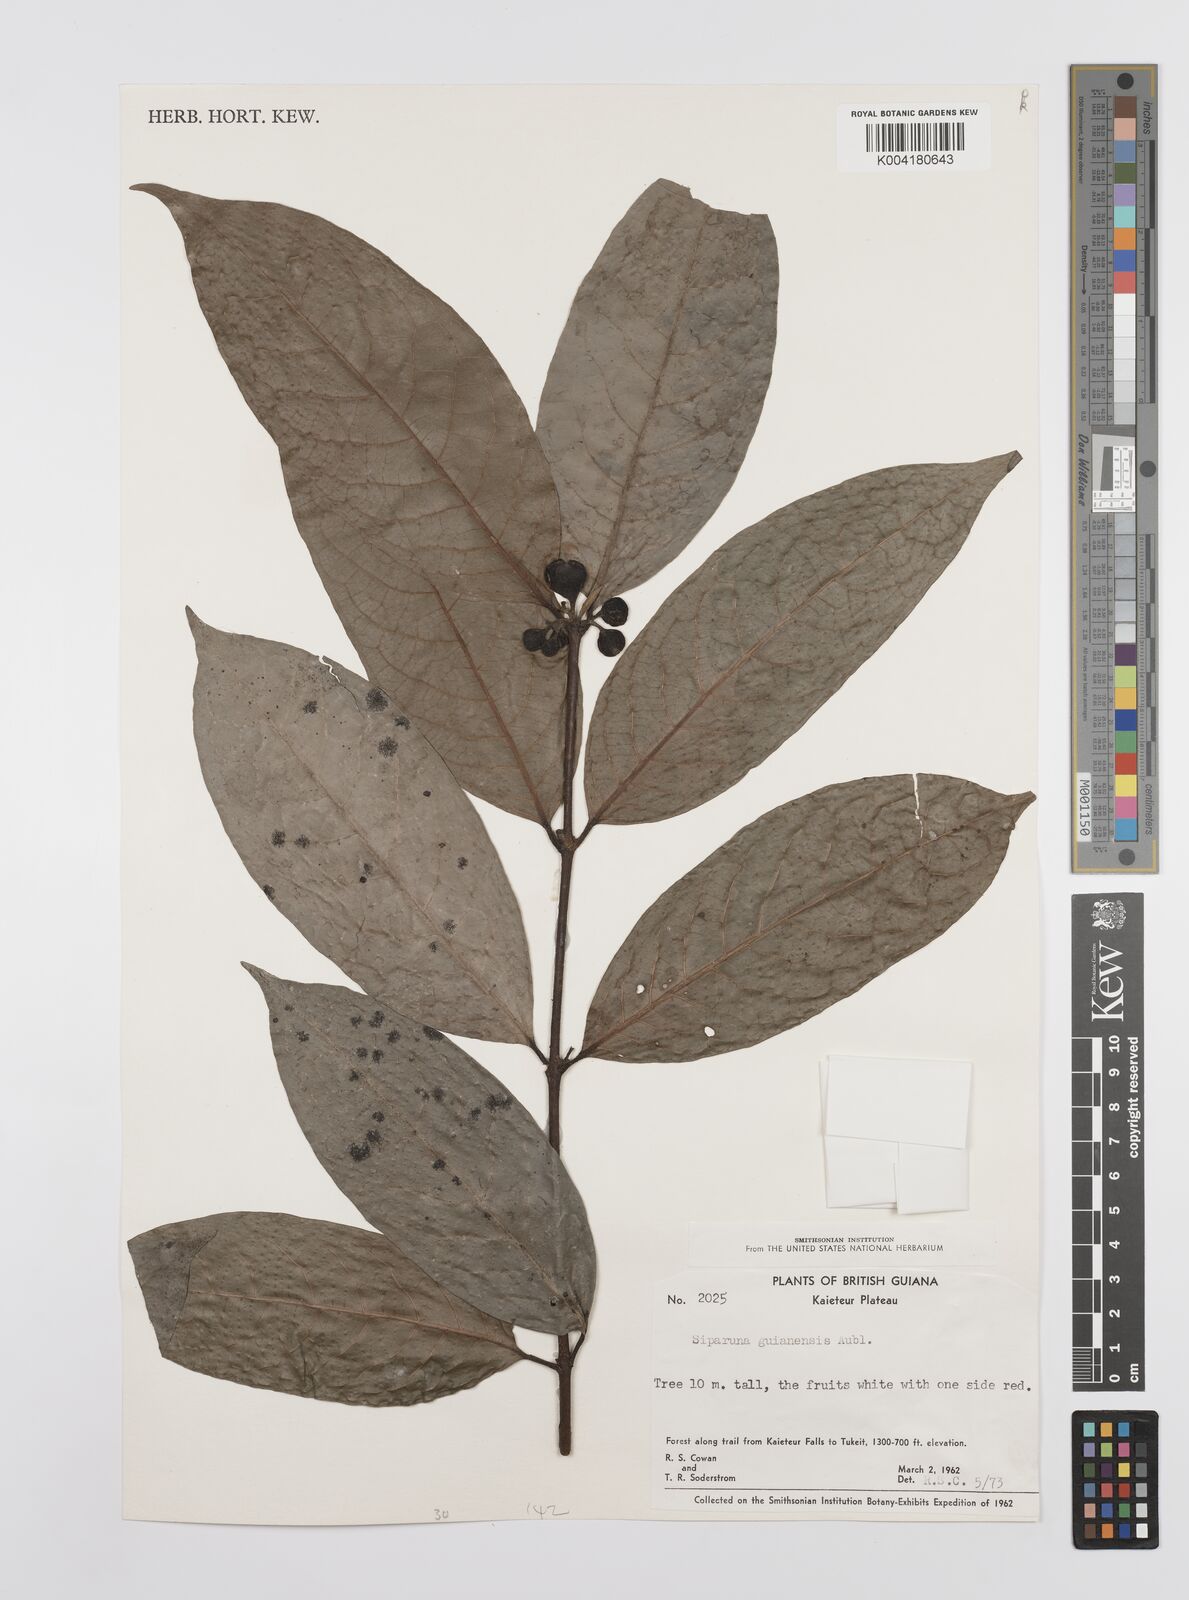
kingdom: Plantae
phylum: Tracheophyta
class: Magnoliopsida
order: Laurales
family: Siparunaceae
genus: Siparuna
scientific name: Siparuna guianensis
